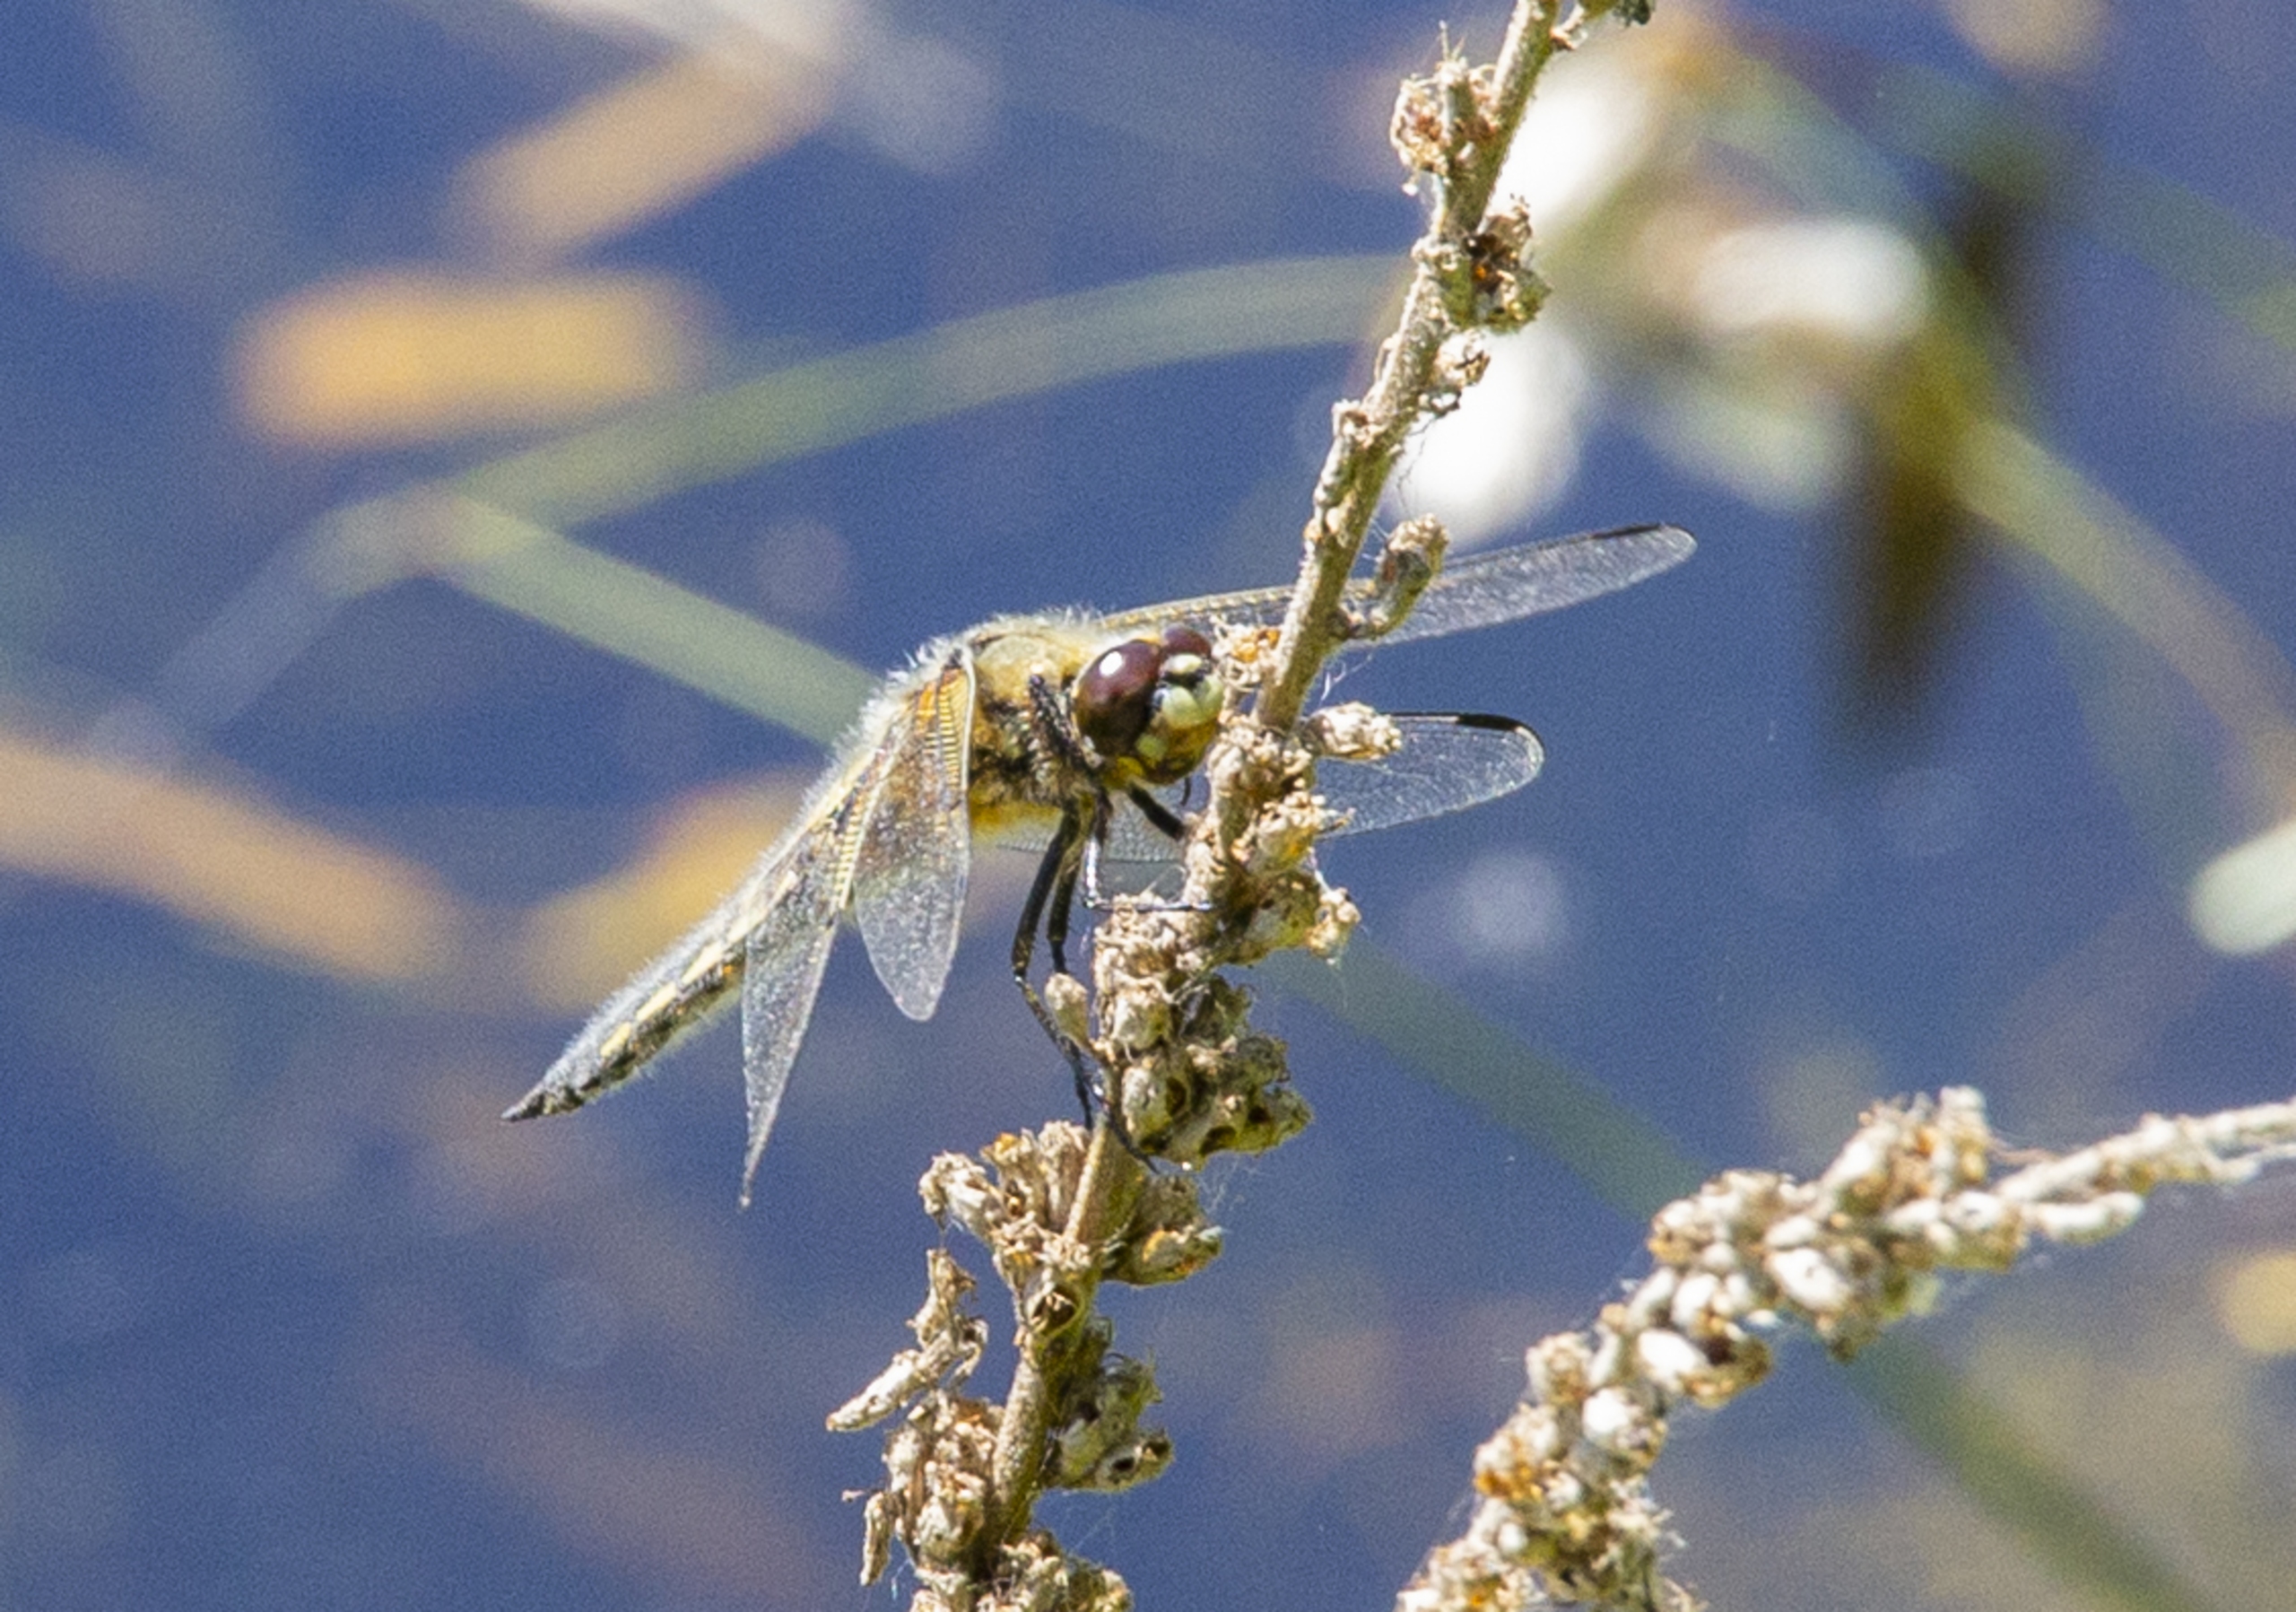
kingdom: Animalia
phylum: Arthropoda
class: Insecta
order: Odonata
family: Libellulidae
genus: Libellula
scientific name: Libellula quadrimaculata
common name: Fireplettet libel
